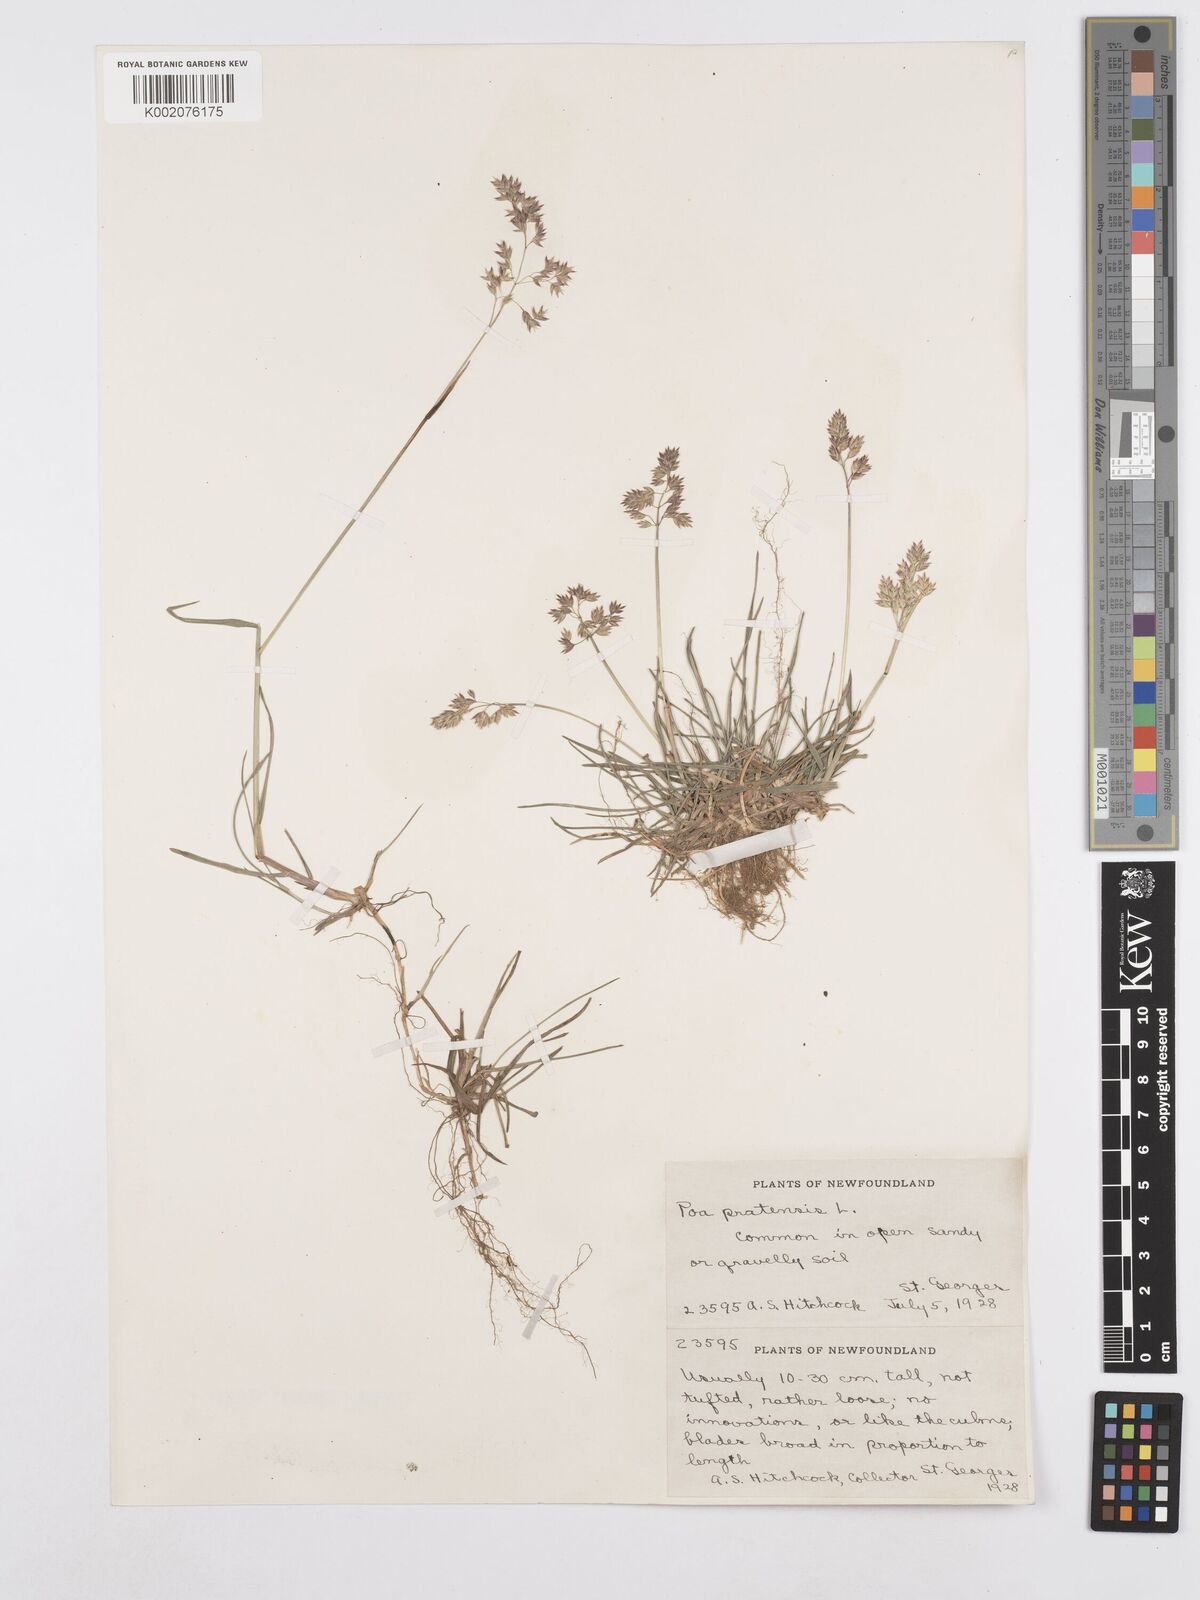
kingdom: Plantae
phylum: Tracheophyta
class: Liliopsida
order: Poales
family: Poaceae
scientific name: Poaceae
